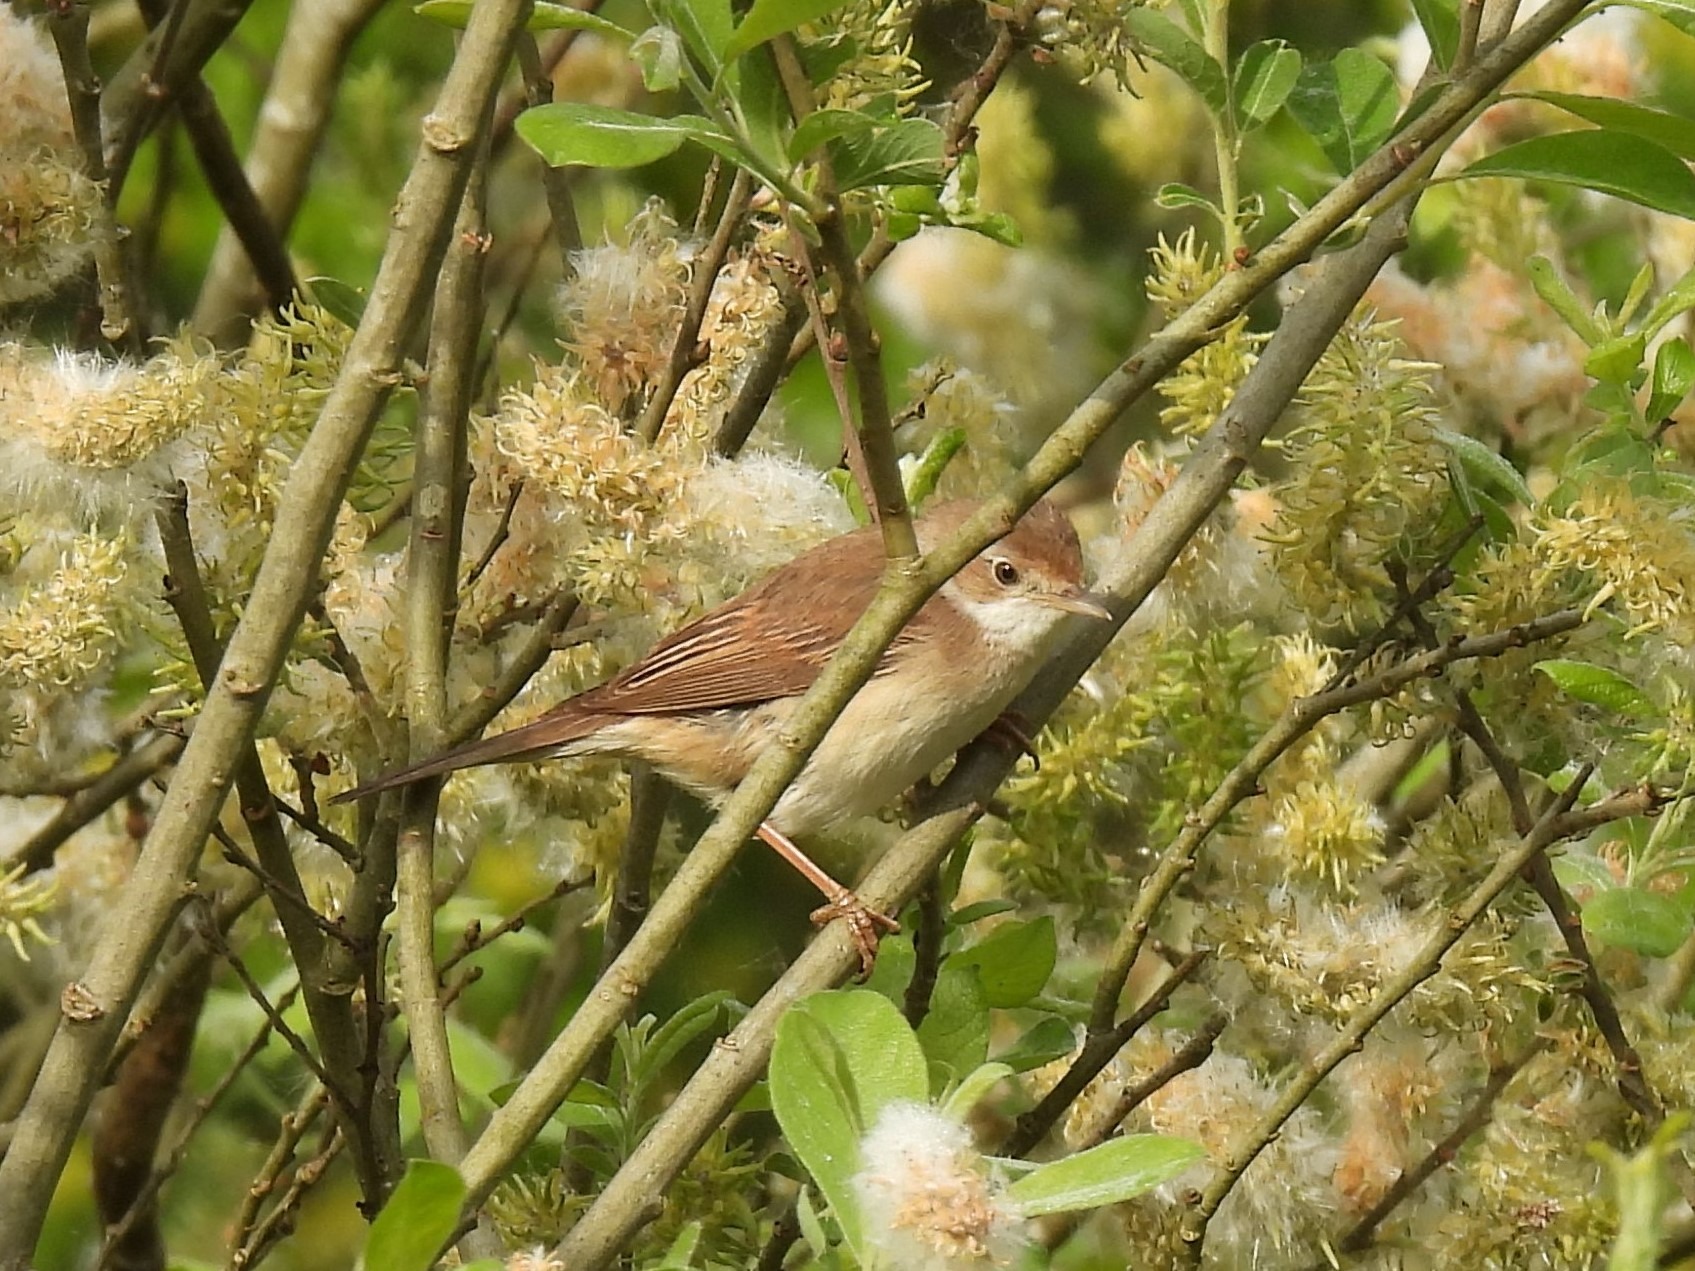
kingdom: Animalia
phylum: Chordata
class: Aves
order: Passeriformes
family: Sylviidae
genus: Sylvia
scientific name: Sylvia communis
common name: Tornsanger
